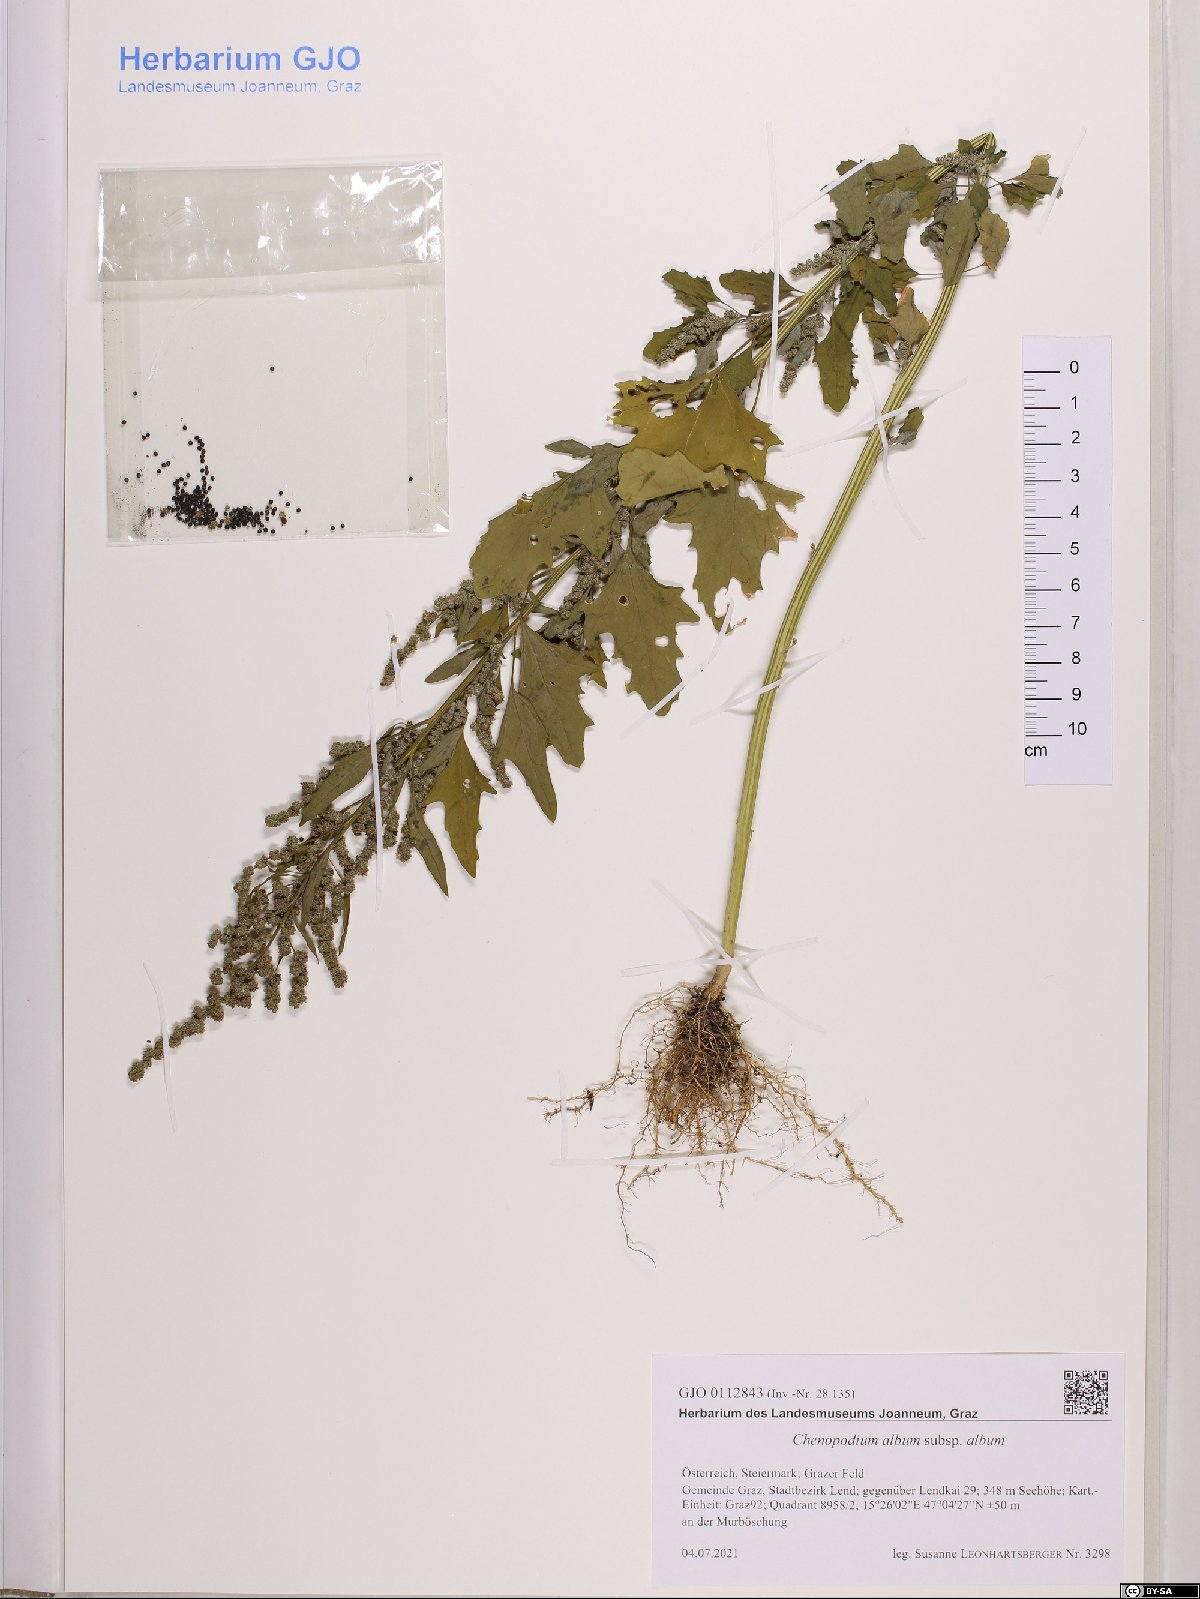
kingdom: Plantae
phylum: Tracheophyta
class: Magnoliopsida
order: Caryophyllales
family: Amaranthaceae
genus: Chenopodium
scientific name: Chenopodium album
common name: Fat-hen
